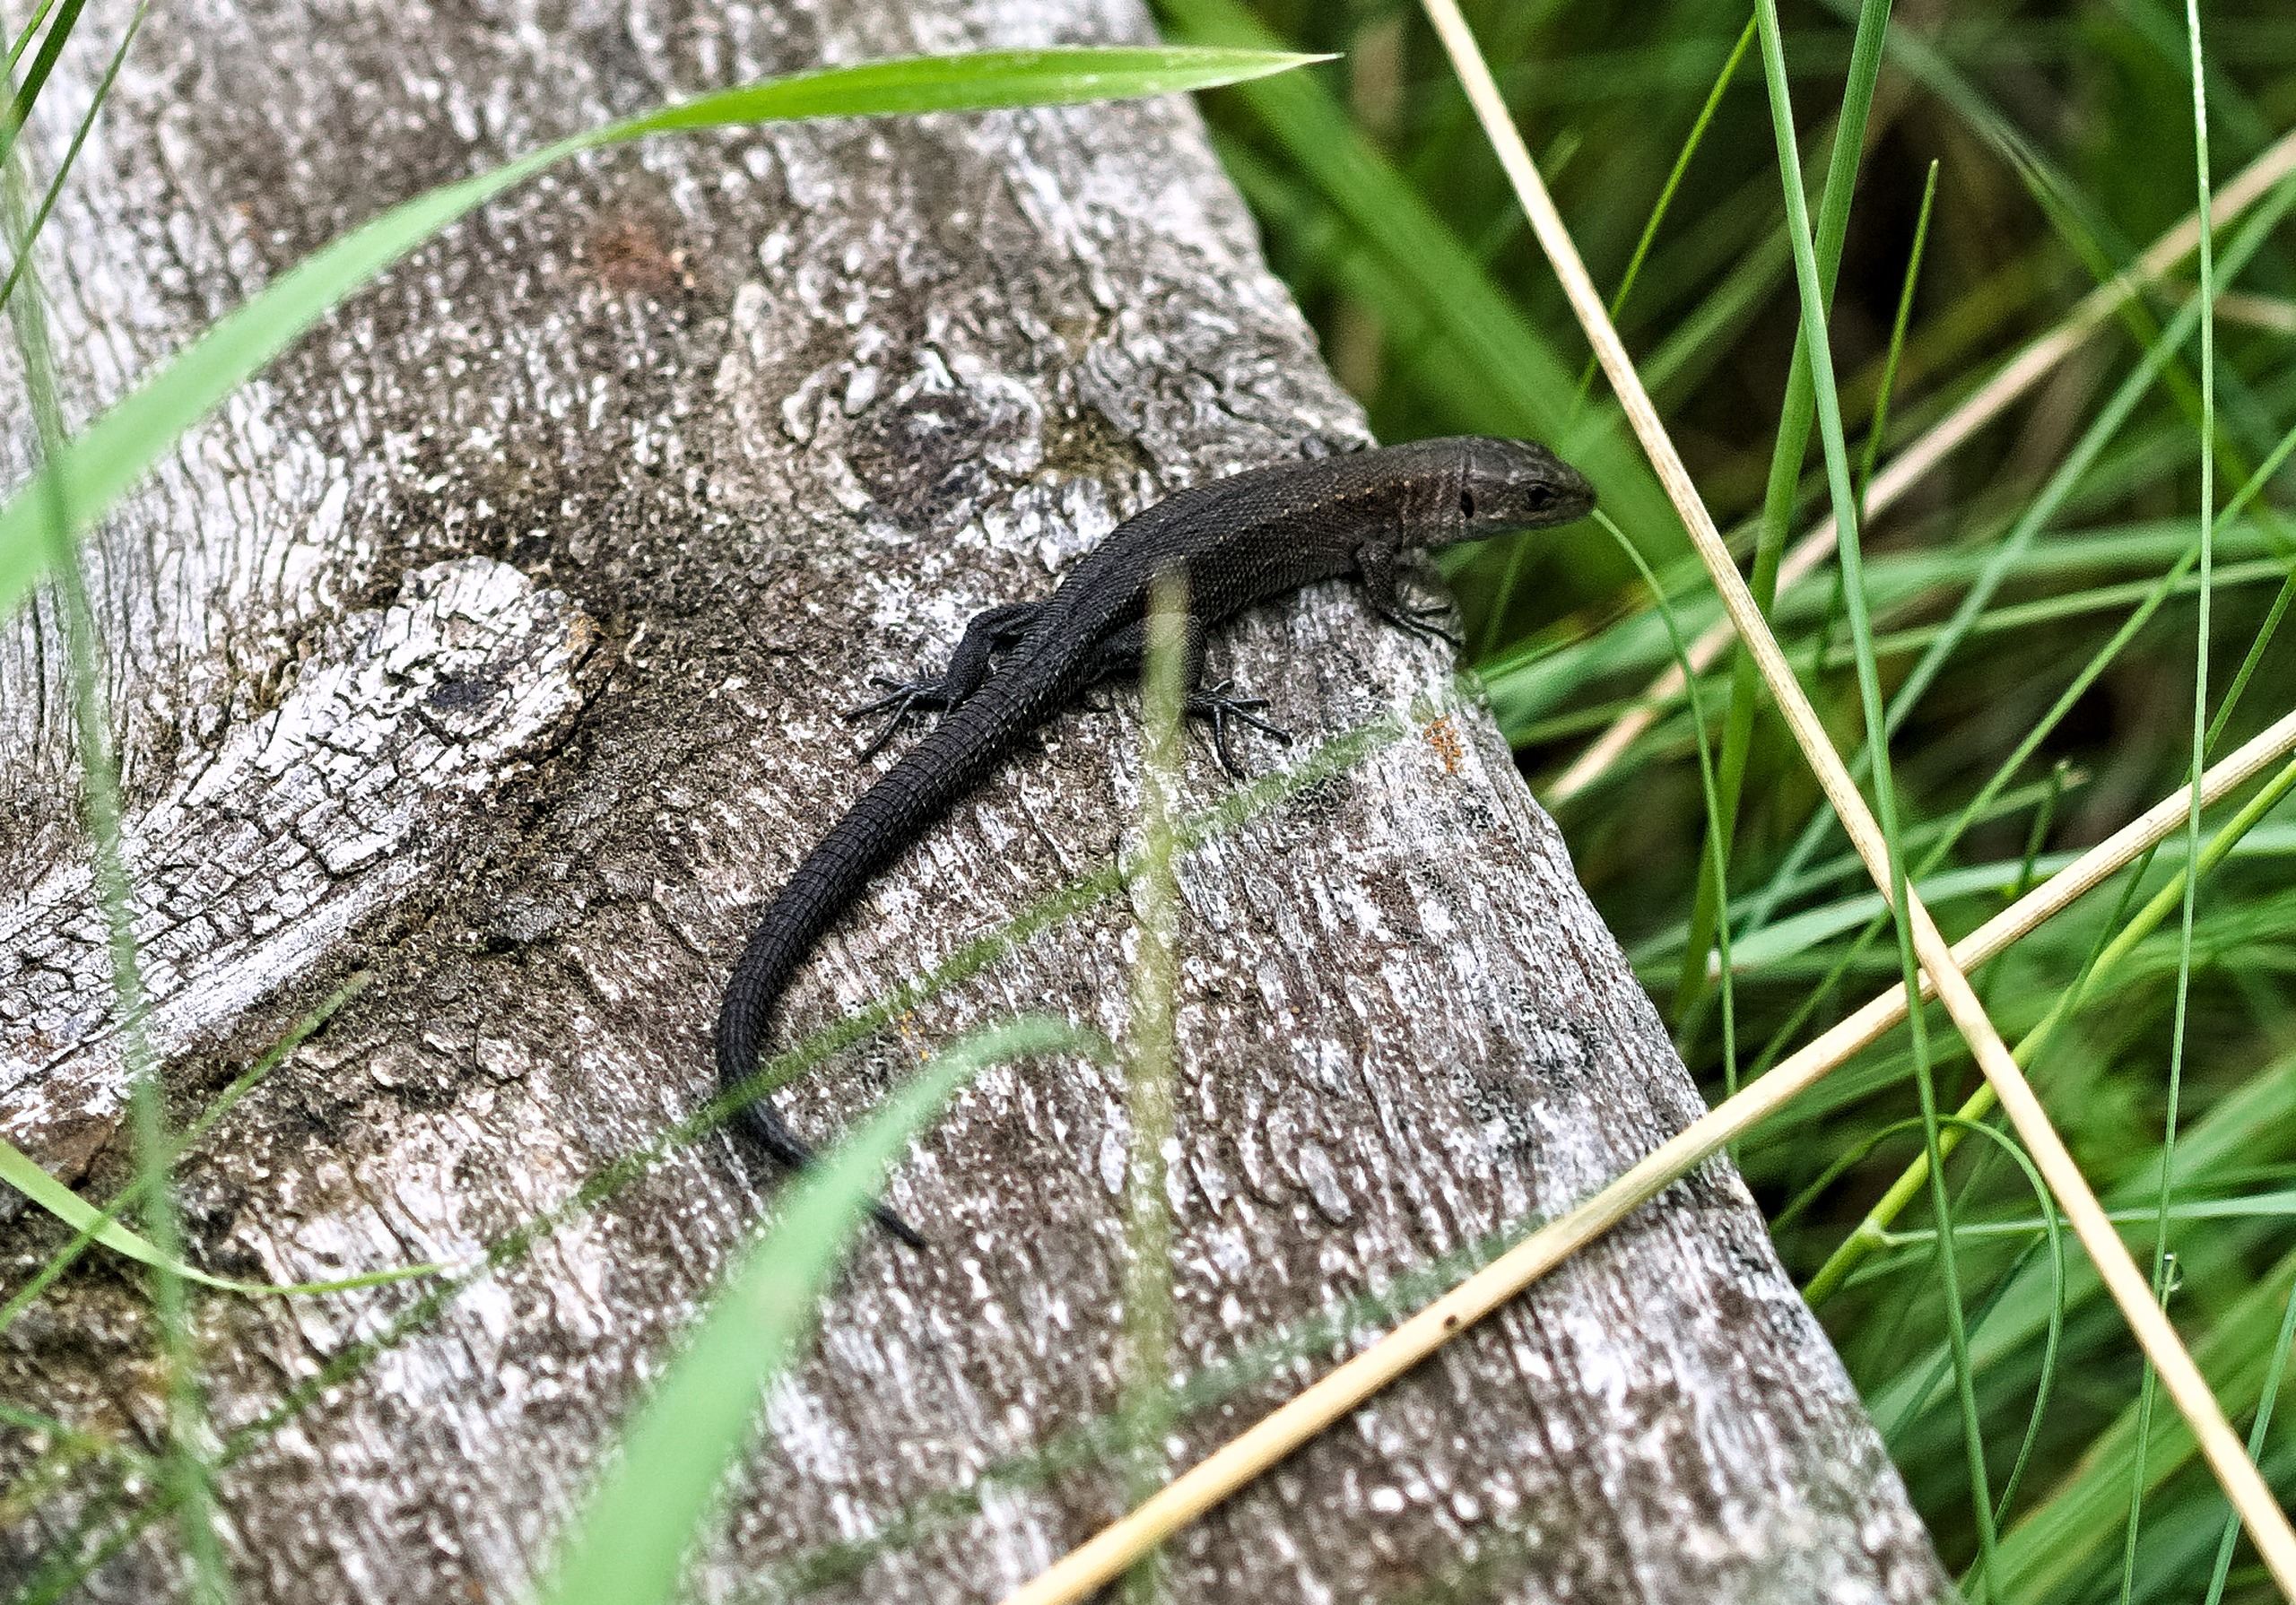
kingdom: Animalia
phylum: Chordata
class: Squamata
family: Lacertidae
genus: Zootoca
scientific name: Zootoca vivipara
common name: Skovfirben
